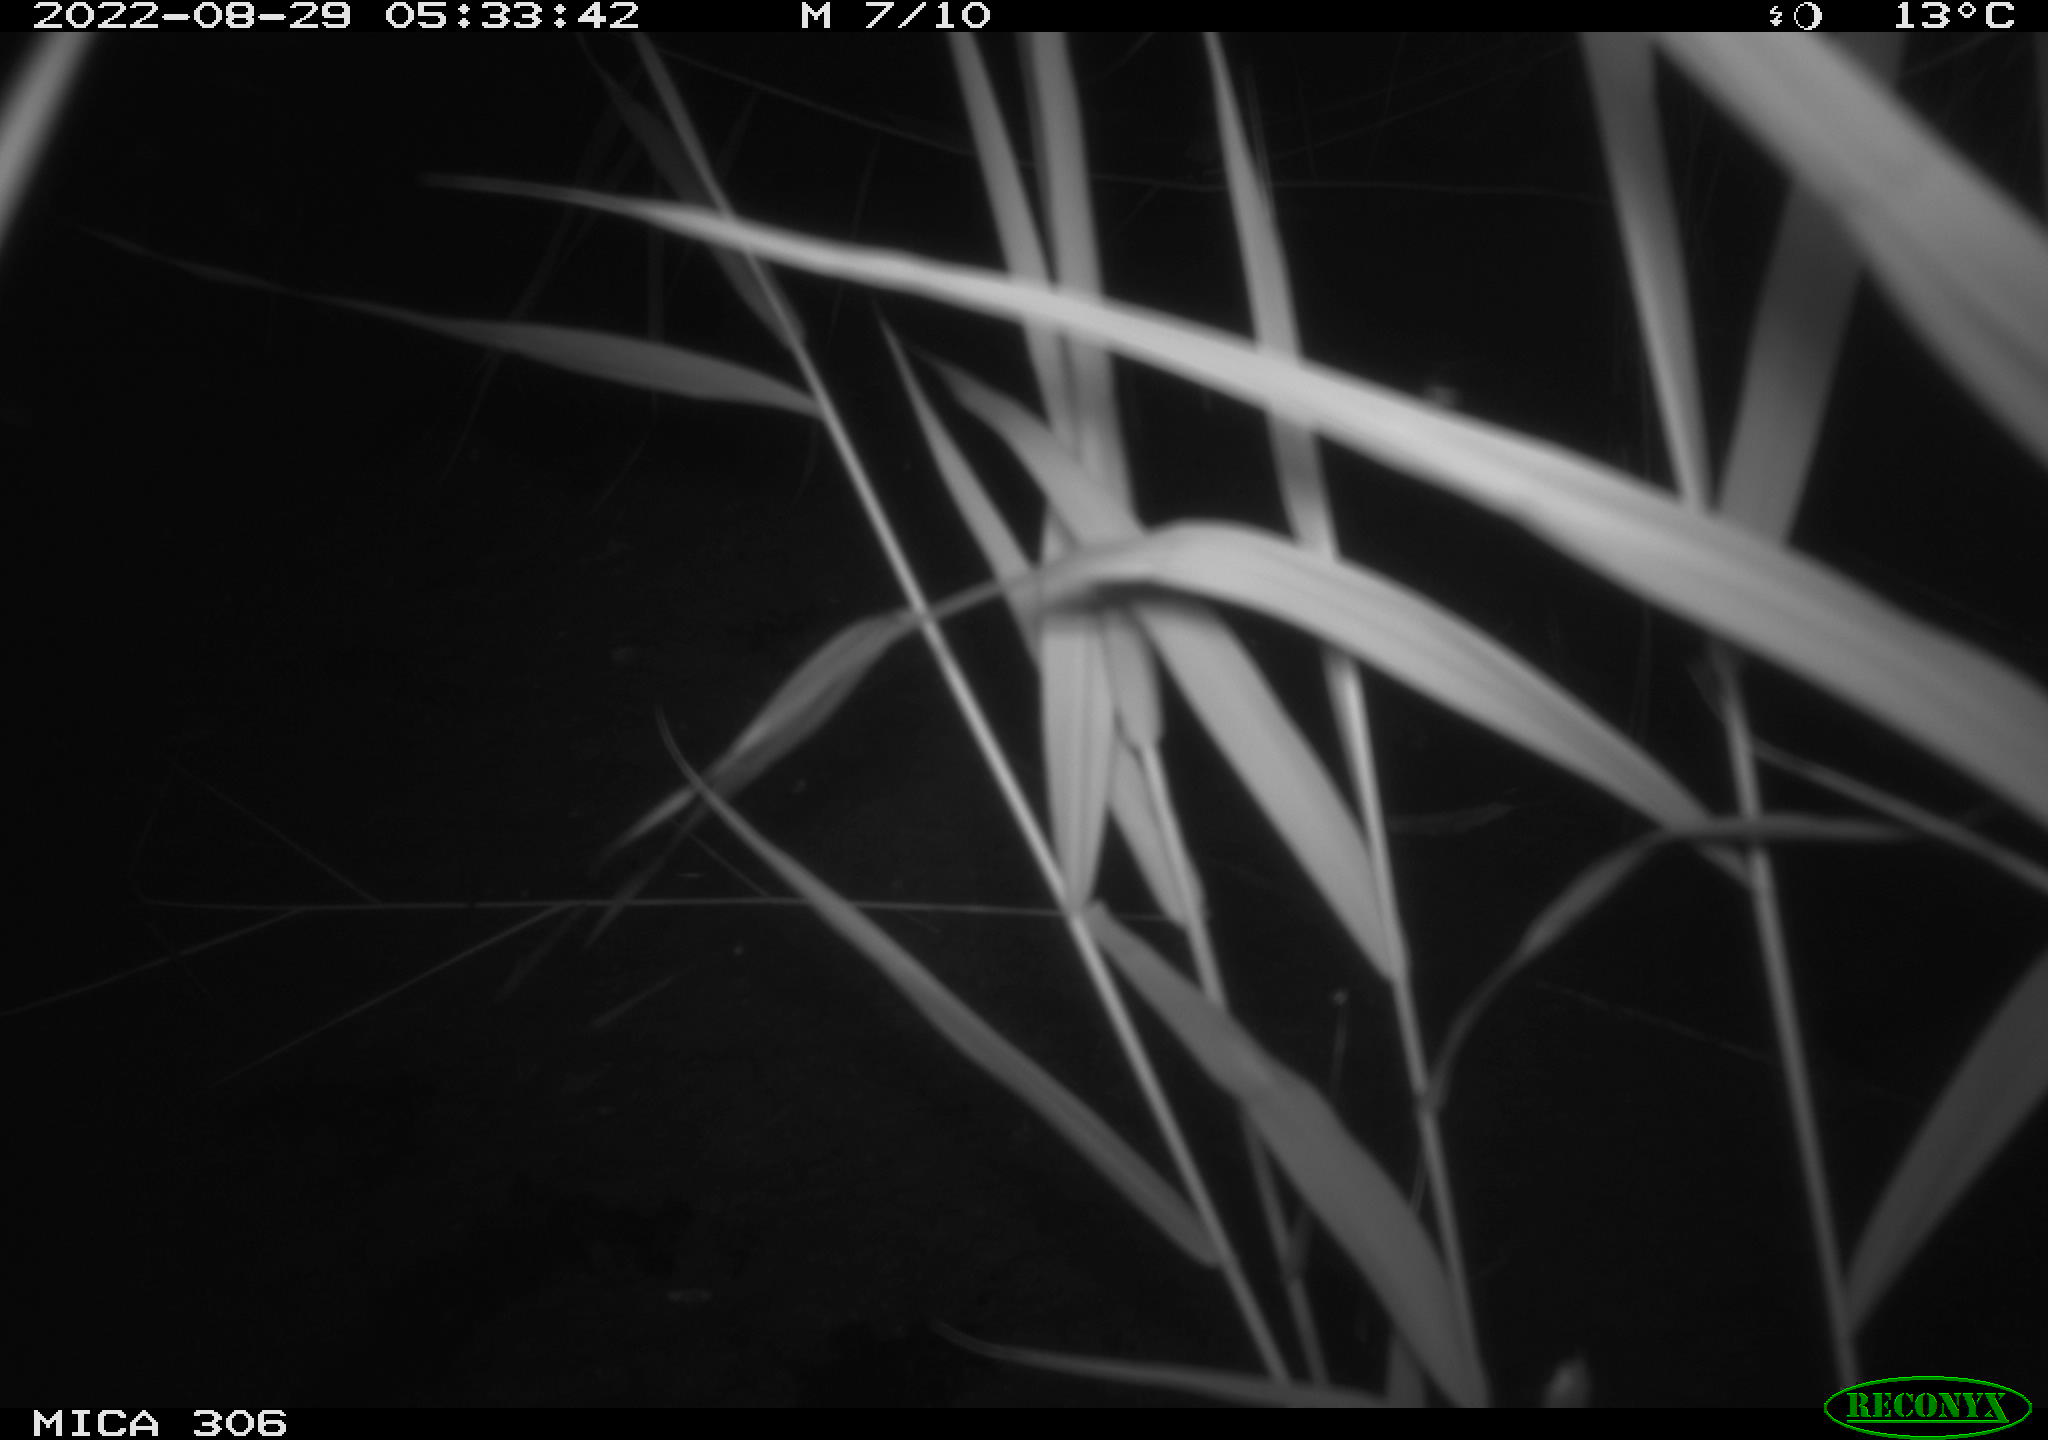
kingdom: Animalia
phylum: Chordata
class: Mammalia
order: Rodentia
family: Muridae
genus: Rattus
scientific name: Rattus norvegicus
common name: Brown rat
